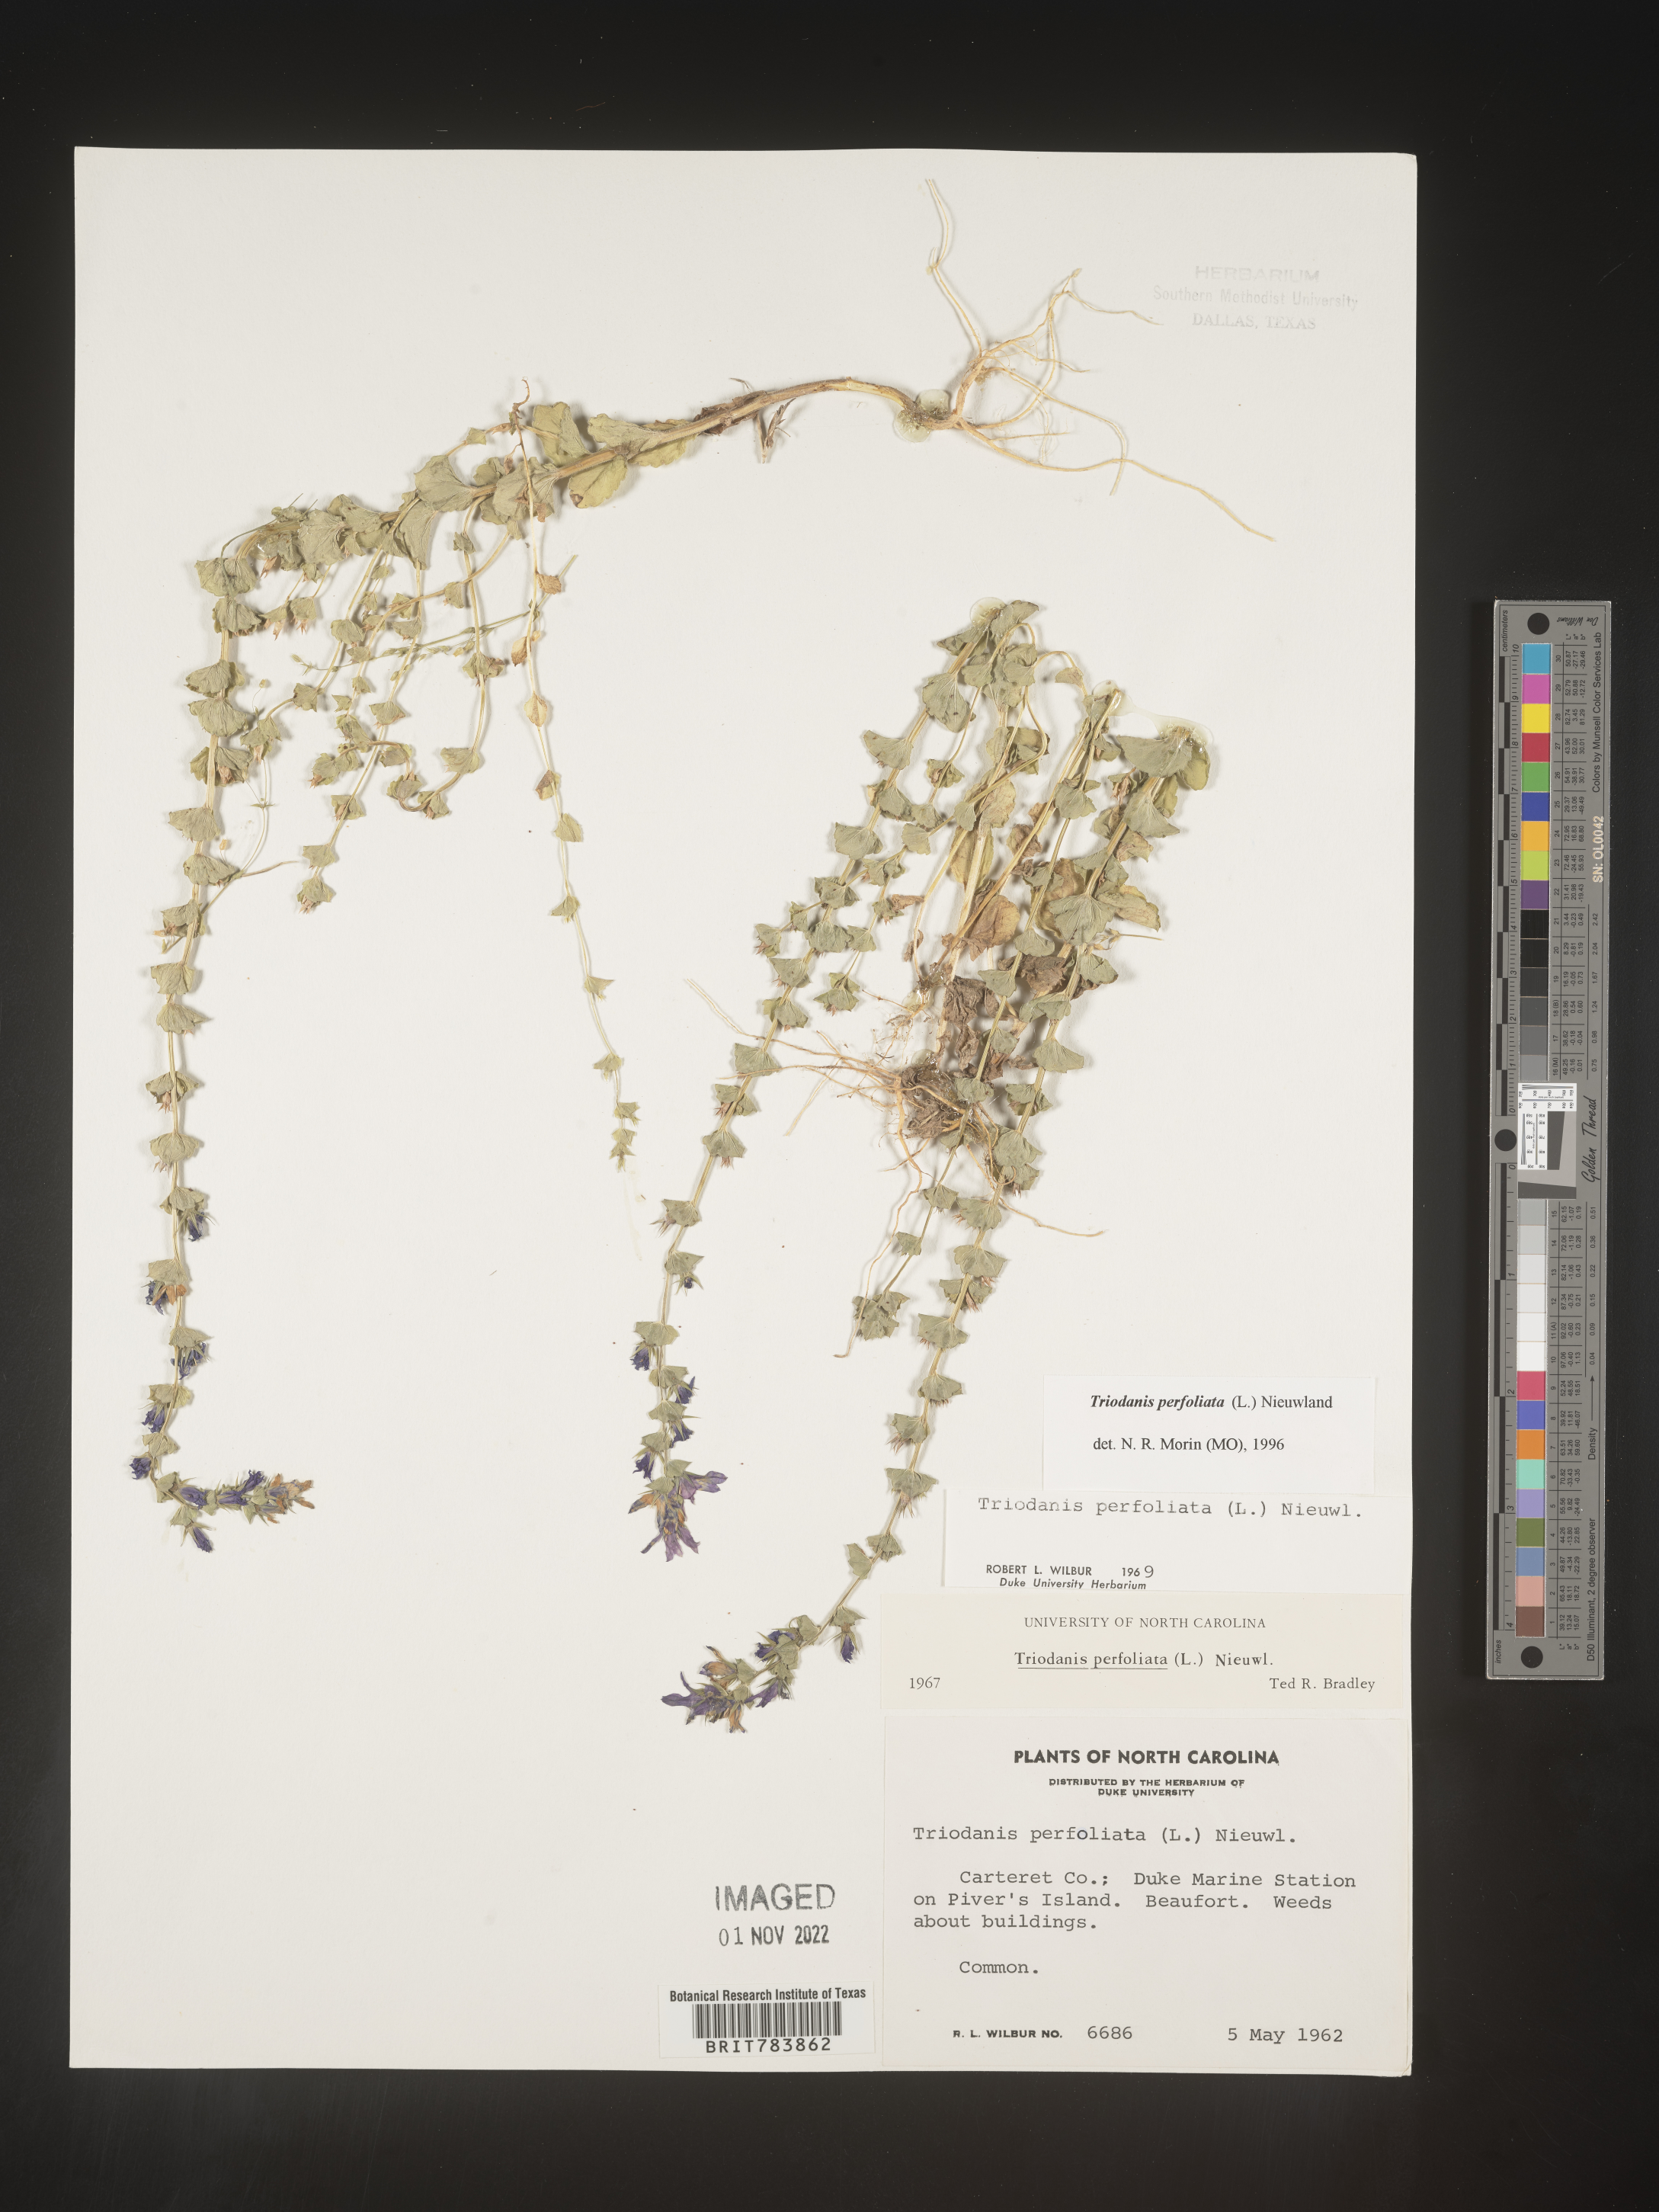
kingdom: Plantae
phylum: Tracheophyta
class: Magnoliopsida
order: Asterales
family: Campanulaceae
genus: Triodanis
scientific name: Triodanis perfoliata
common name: Clasping venus' looking-glass
